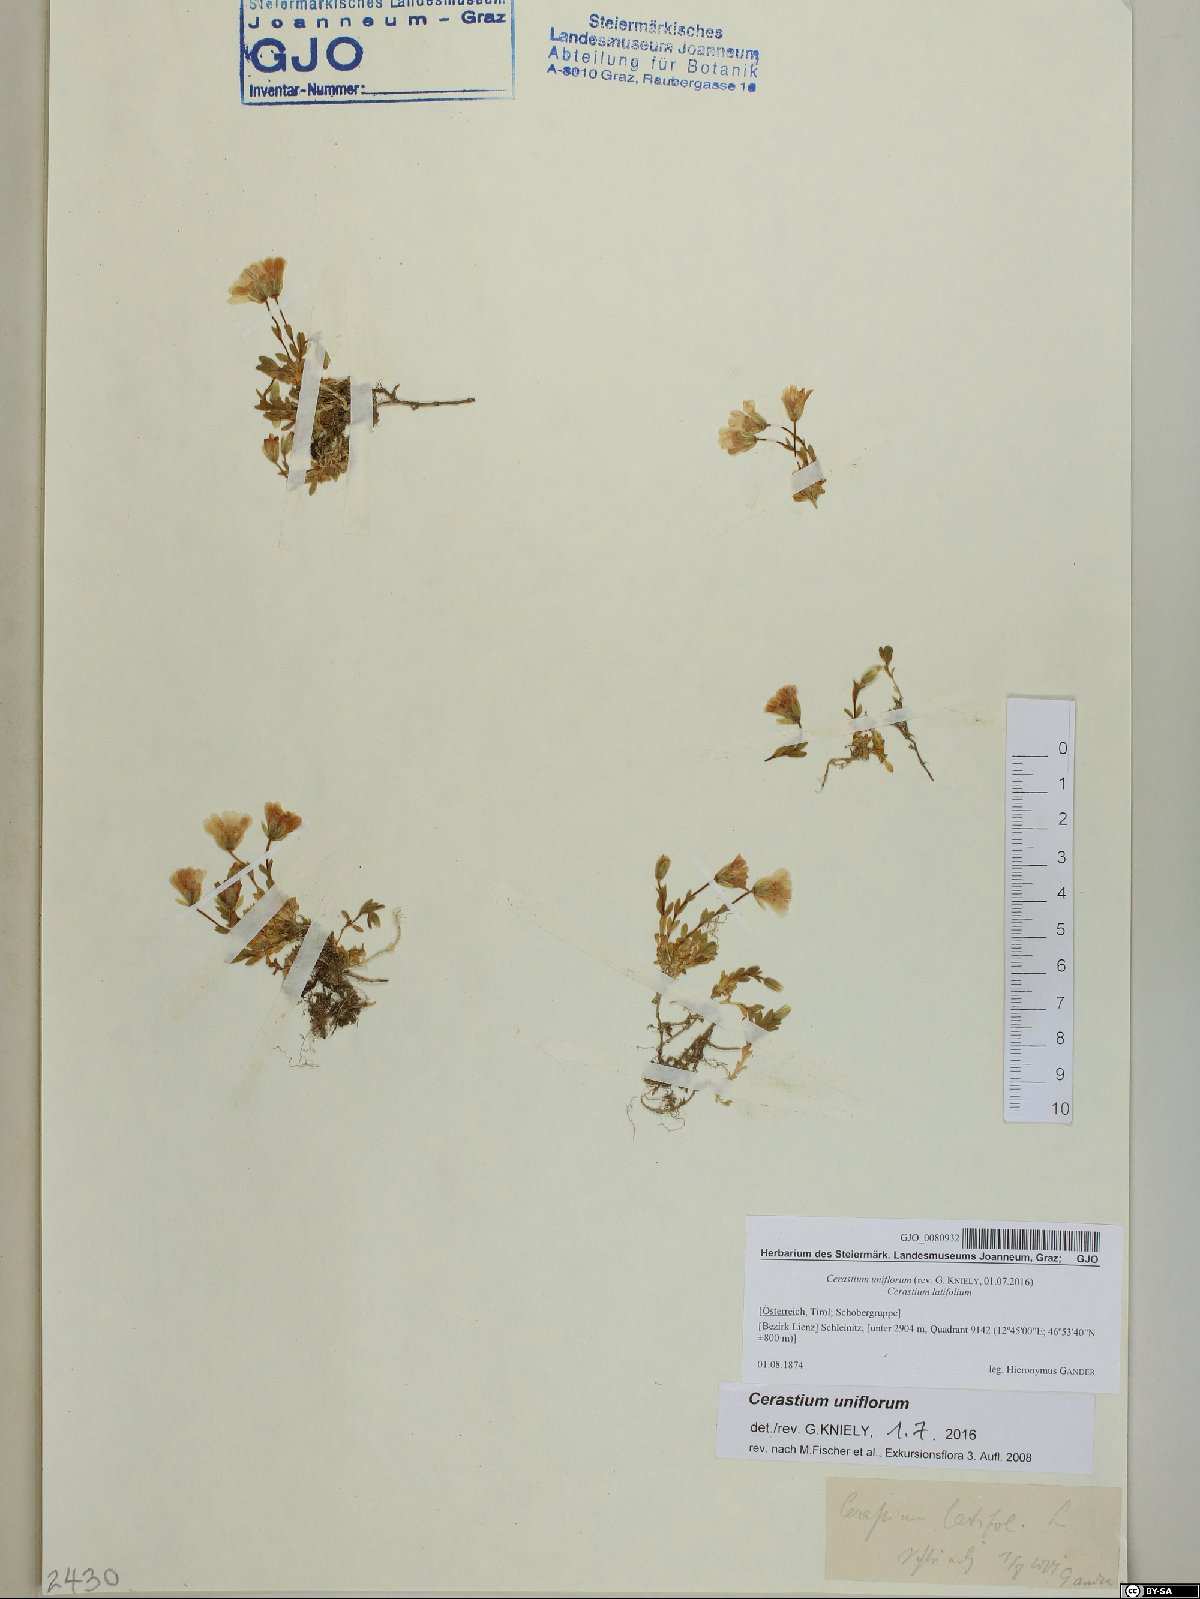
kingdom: Plantae
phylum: Tracheophyta
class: Magnoliopsida
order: Caryophyllales
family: Caryophyllaceae
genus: Cerastium
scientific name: Cerastium uniflorum
